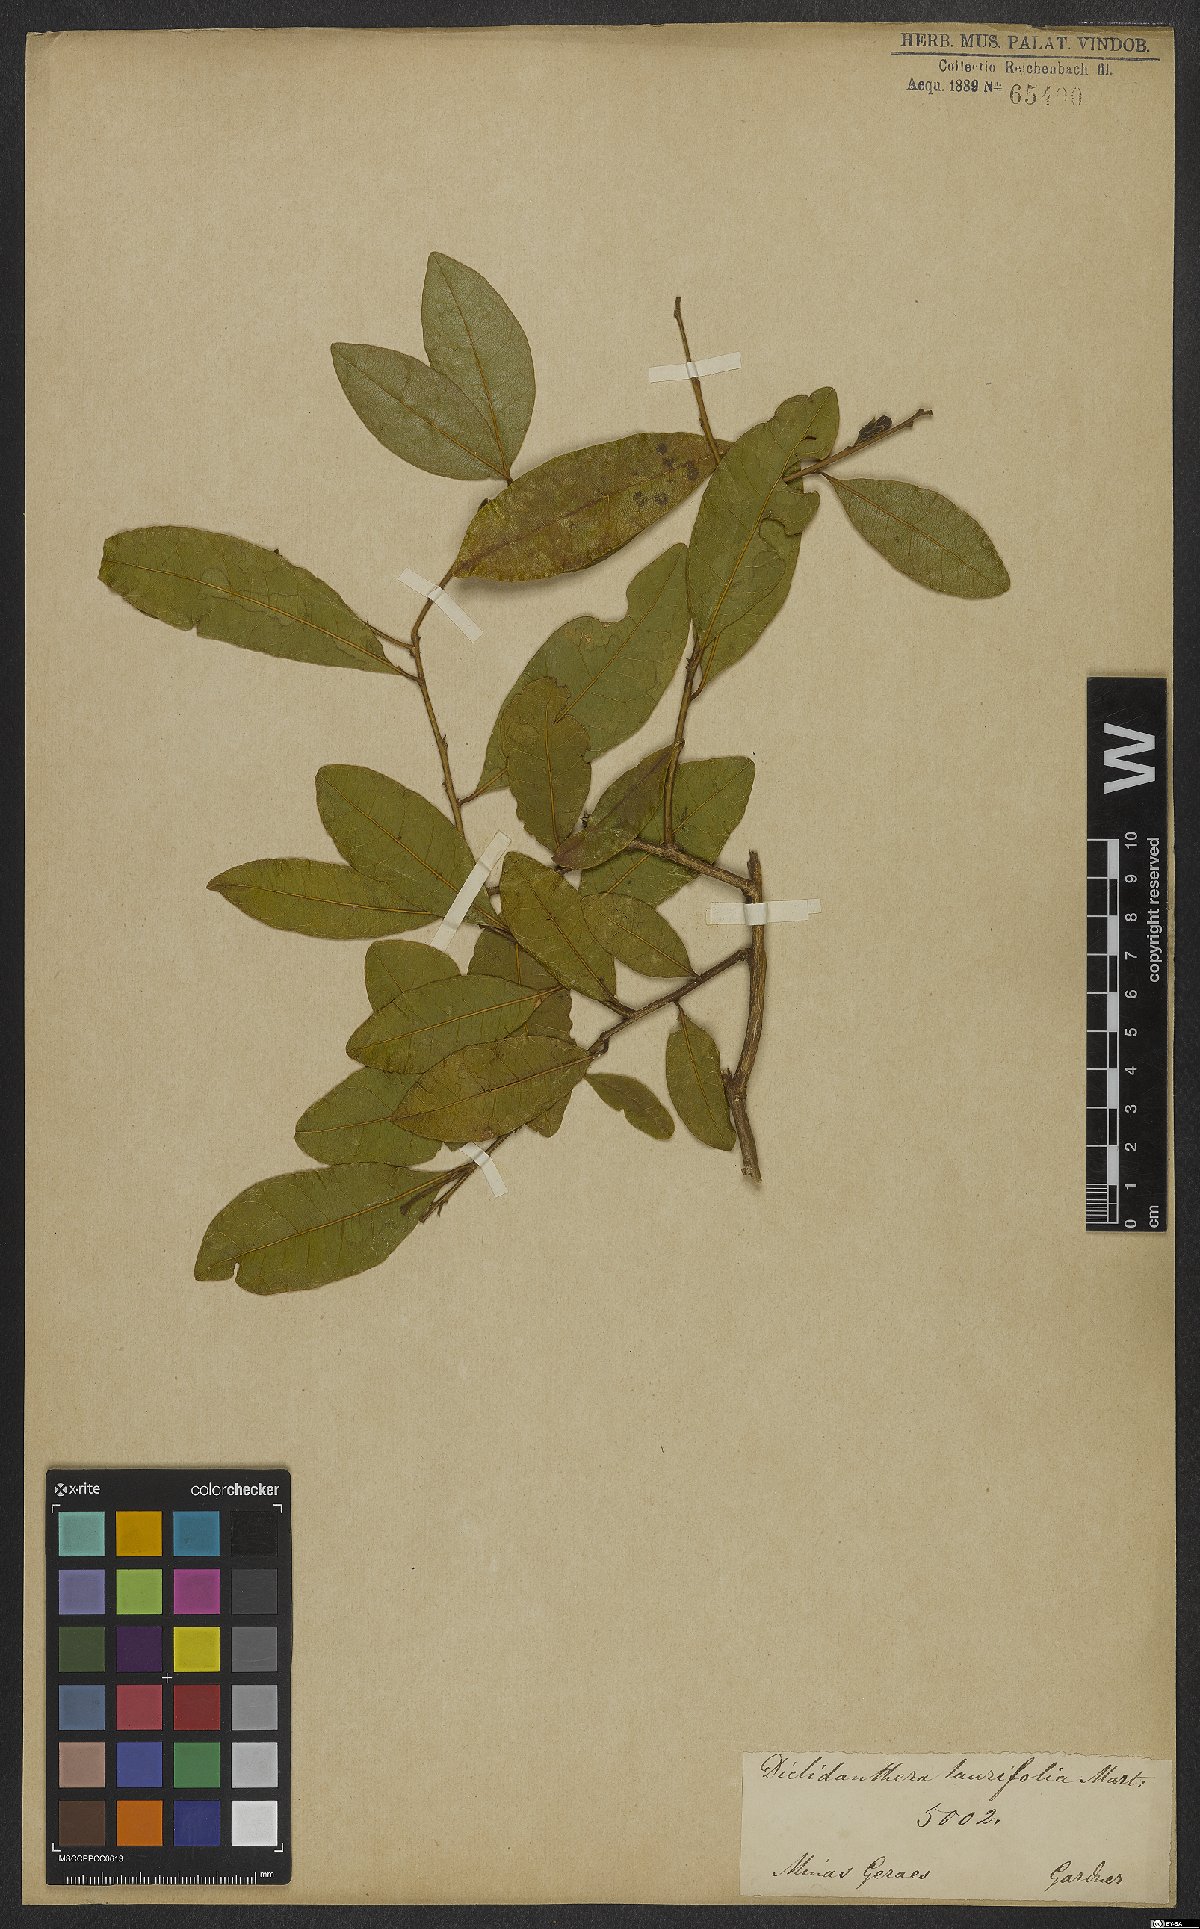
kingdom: Plantae
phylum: Tracheophyta
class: Magnoliopsida
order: Fabales
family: Polygalaceae
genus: Diclidanthera
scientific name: Diclidanthera laurifolia
